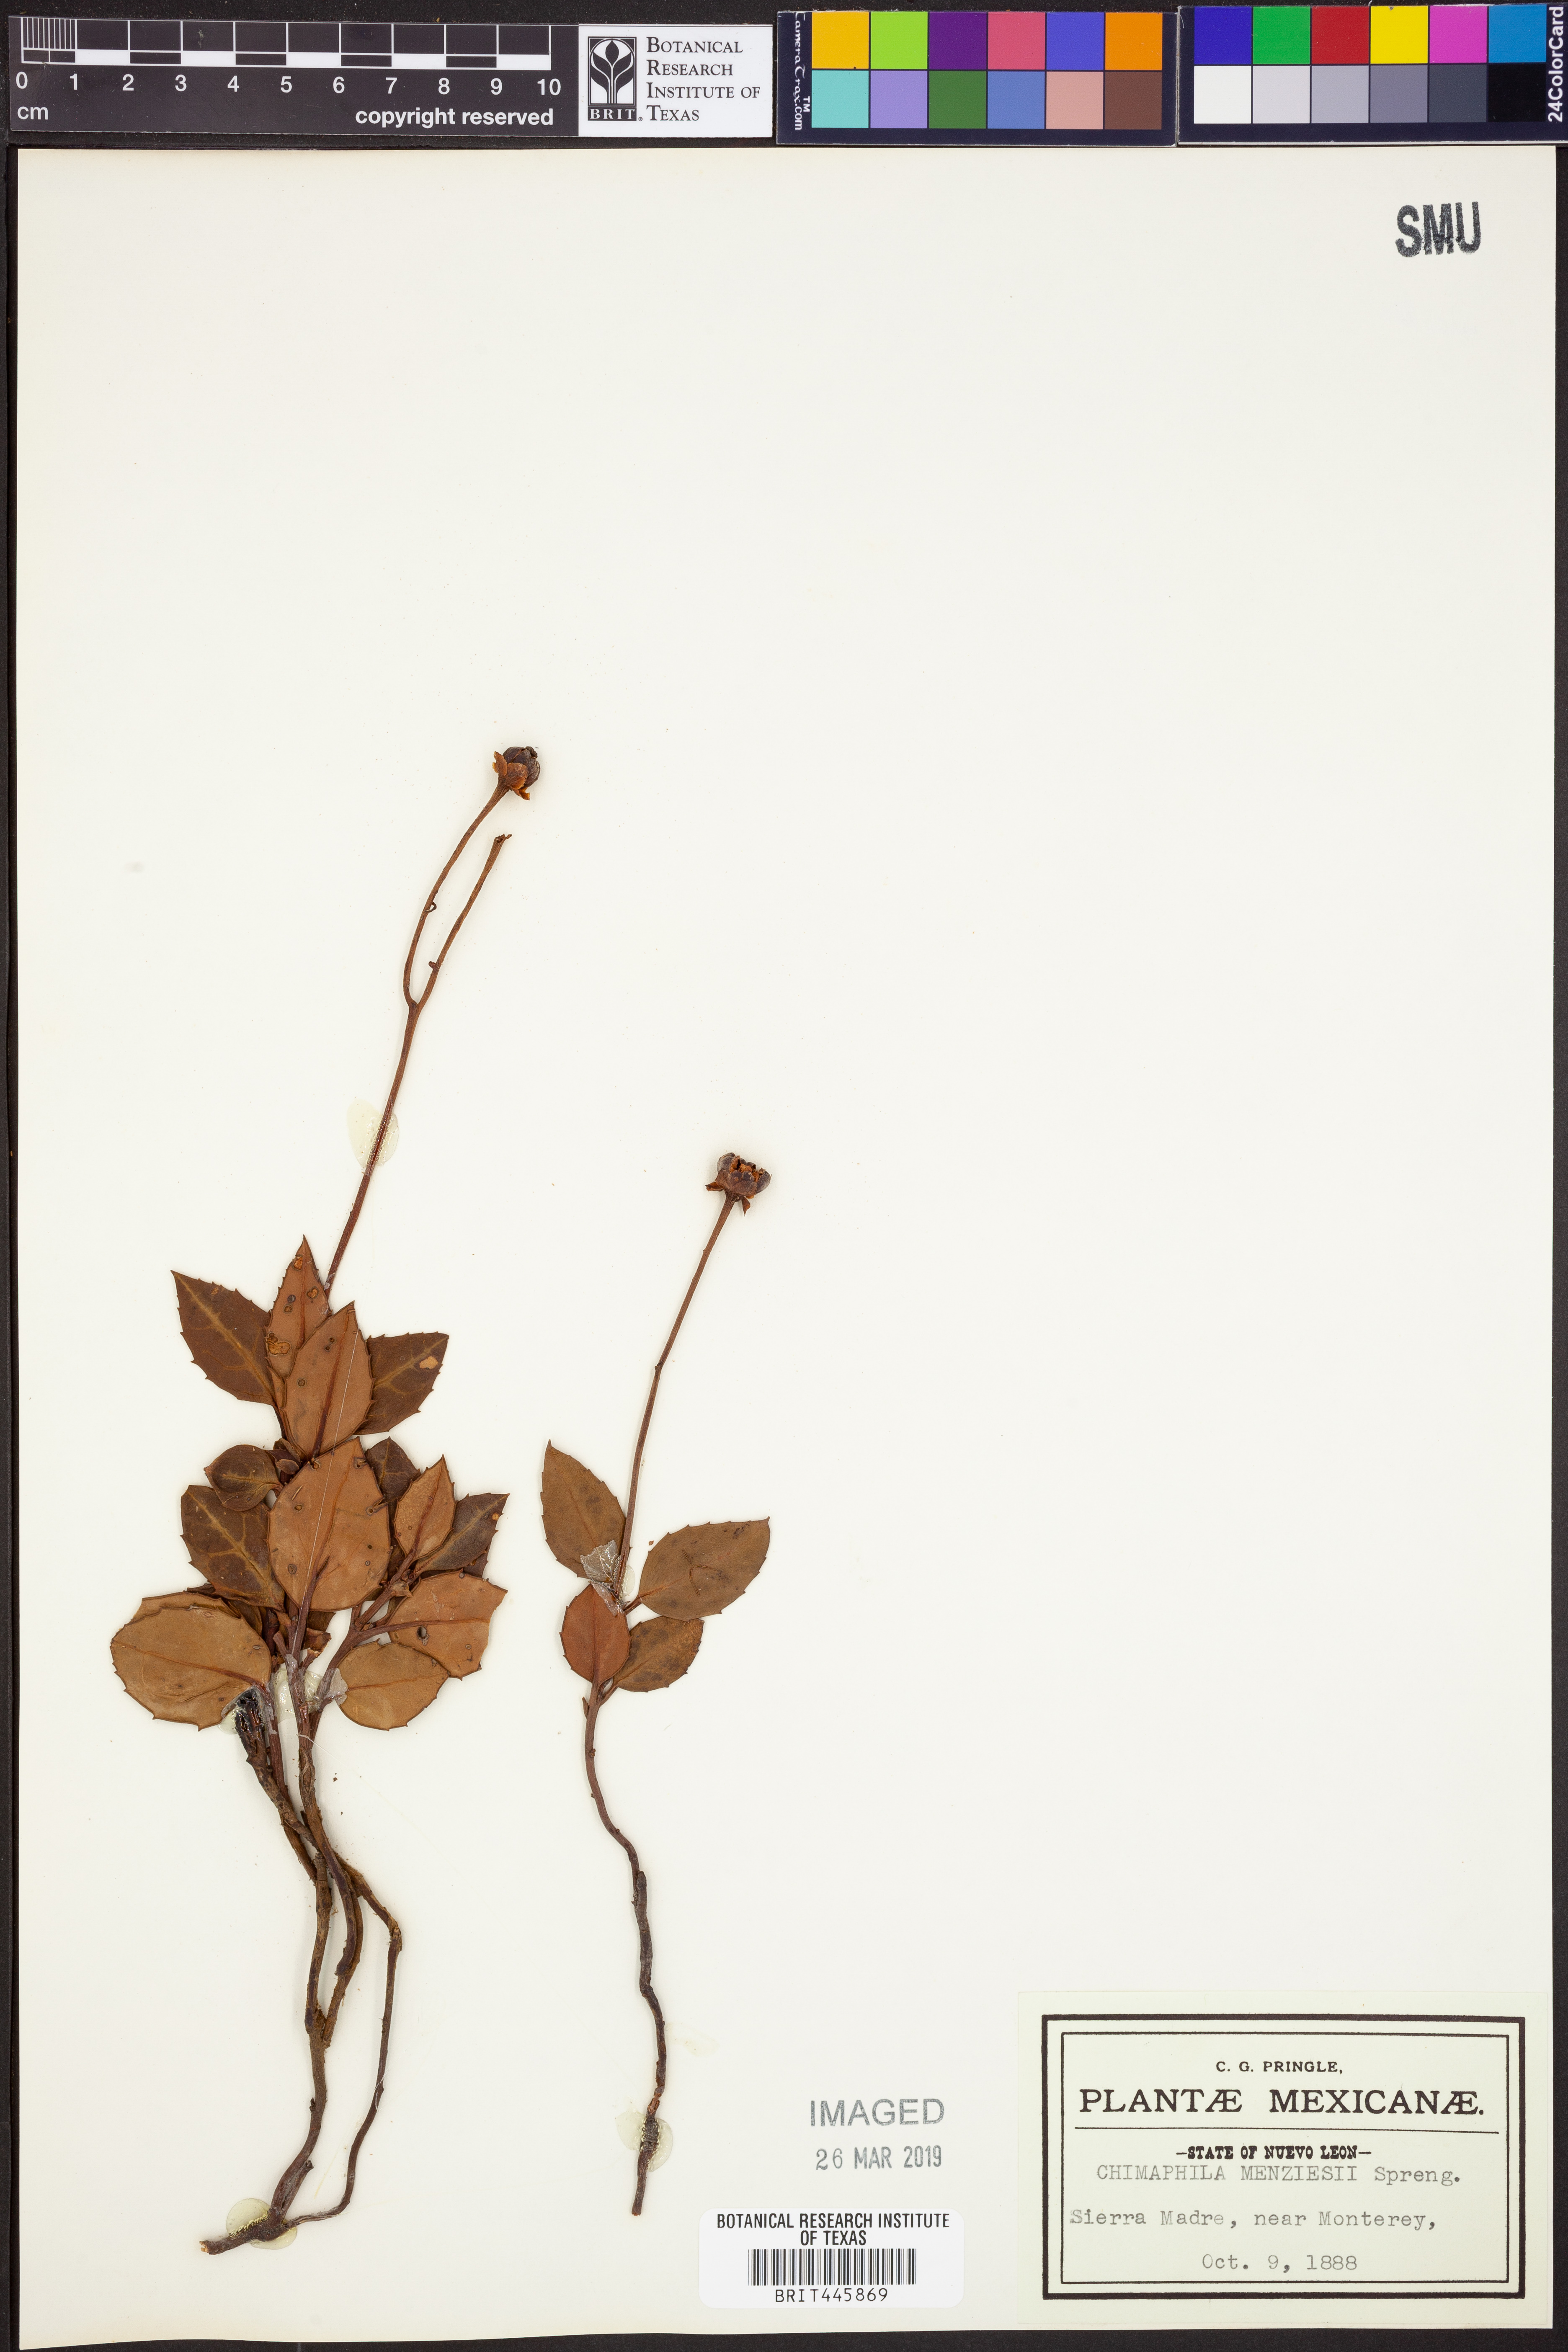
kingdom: Plantae
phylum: Tracheophyta
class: Magnoliopsida
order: Ericales
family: Ericaceae
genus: Chimaphila
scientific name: Chimaphila menziesii
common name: Menzies' pipsissewa
